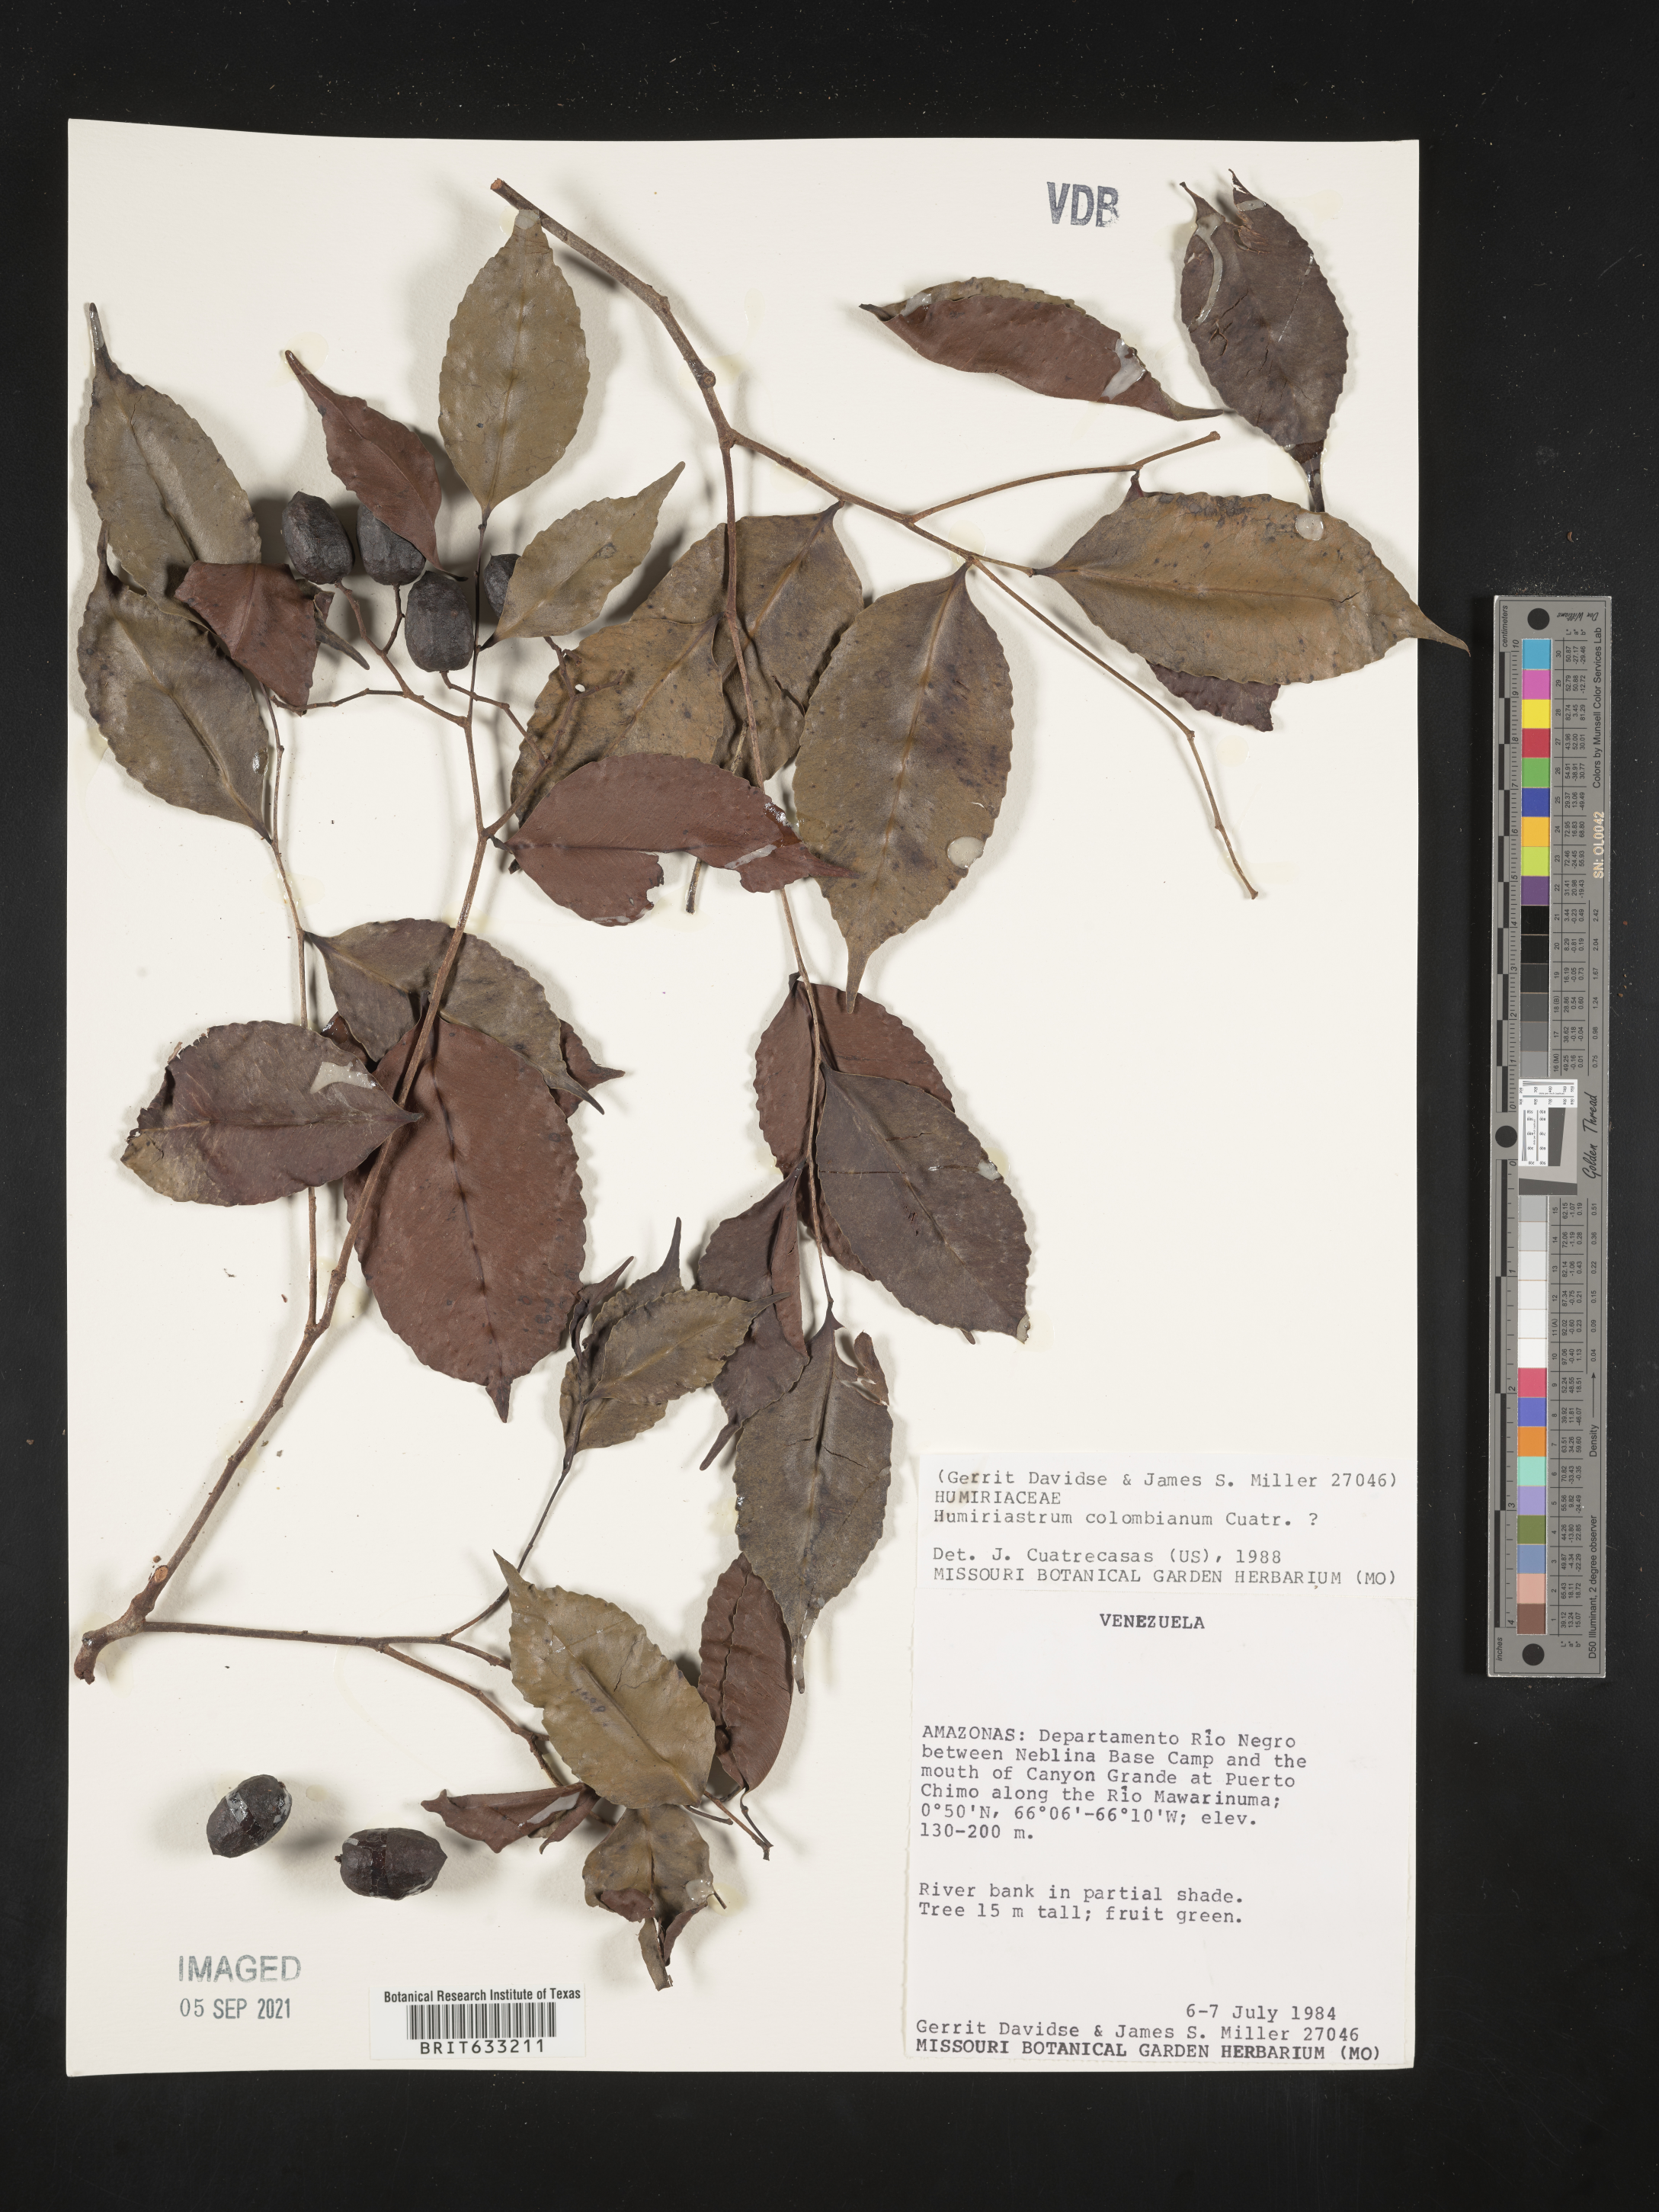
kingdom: Plantae
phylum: Tracheophyta
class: Magnoliopsida
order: Malpighiales
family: Humiriaceae
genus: Humiriastrum
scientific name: Humiriastrum
